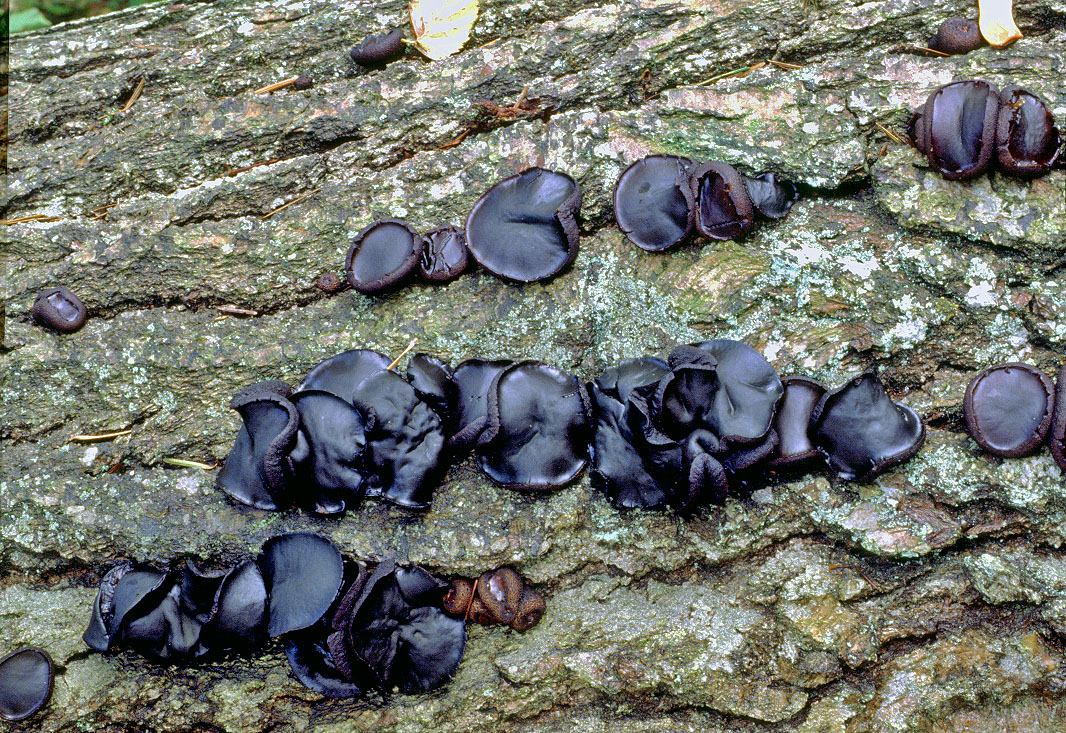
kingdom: Fungi
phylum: Ascomycota
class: Leotiomycetes
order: Phacidiales
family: Phacidiaceae
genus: Bulgaria
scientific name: Bulgaria inquinans
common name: afsmittende topsvamp
